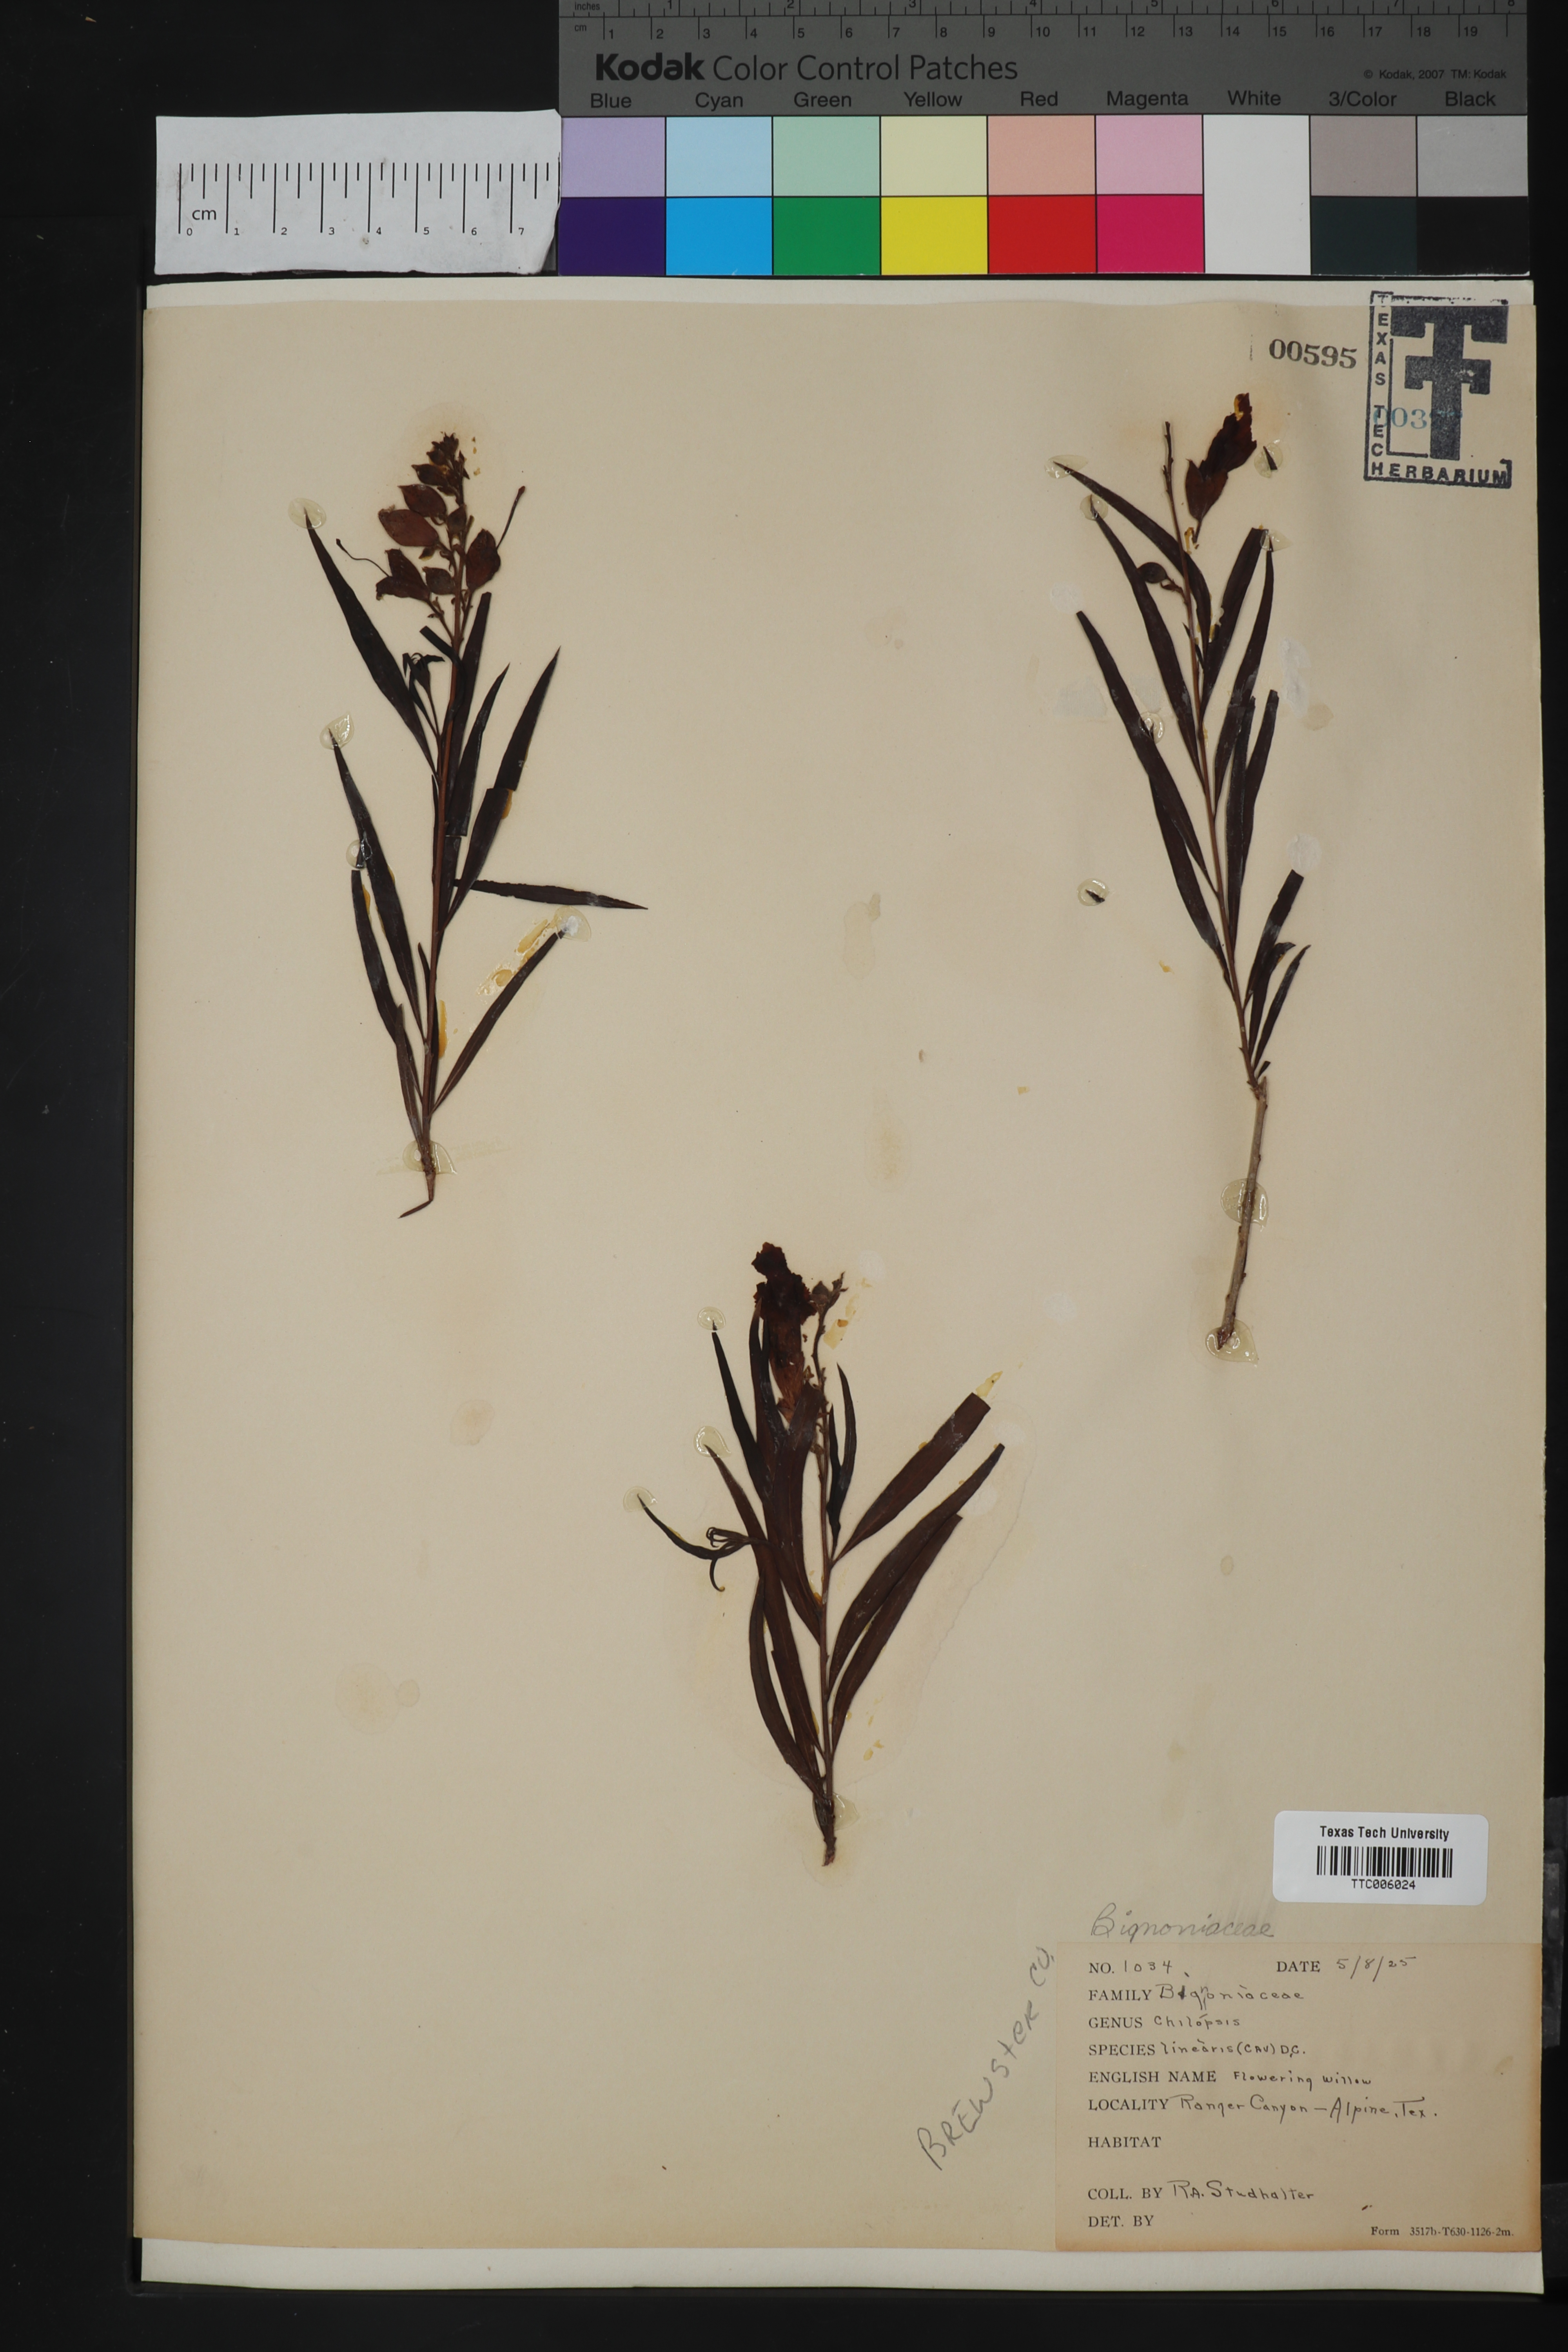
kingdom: Plantae
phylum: Tracheophyta
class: Magnoliopsida
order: Lamiales
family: Bignoniaceae
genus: Chilopsis
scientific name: Chilopsis linearis
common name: Desert-willow
